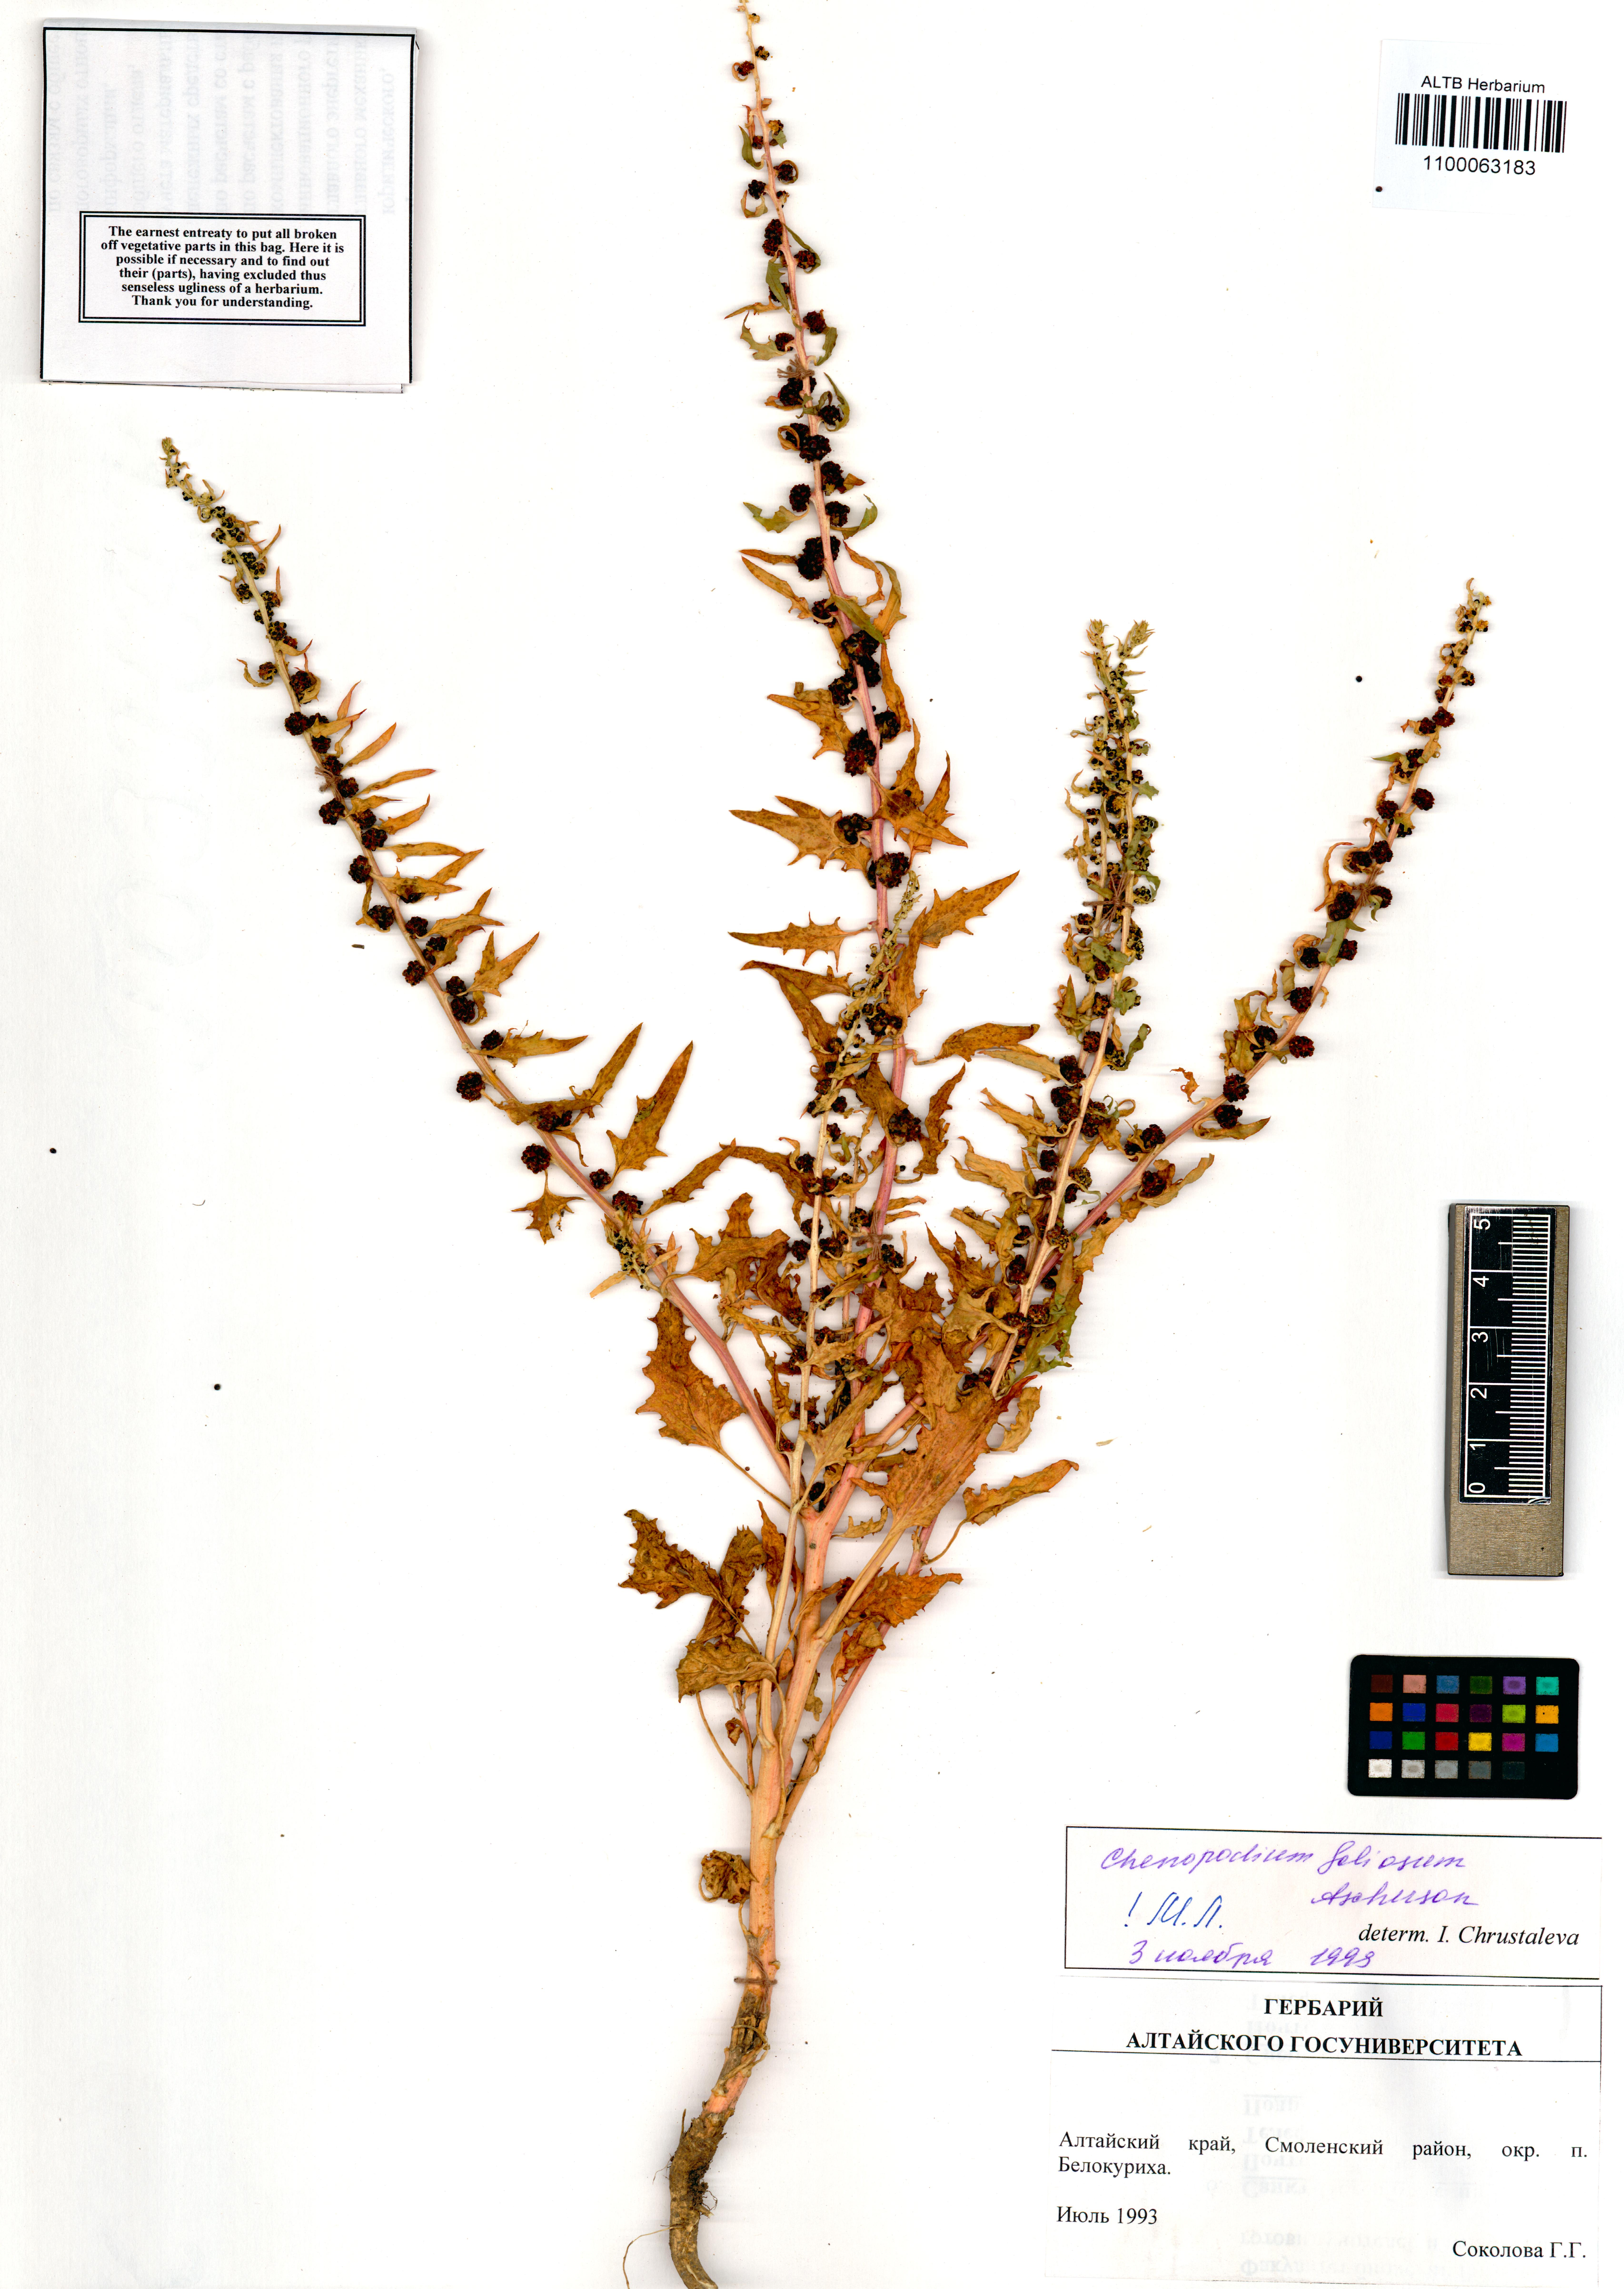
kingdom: Plantae
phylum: Tracheophyta
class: Magnoliopsida
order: Caryophyllales
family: Amaranthaceae
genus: Blitum
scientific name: Blitum virgatum
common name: Strawberry goosefoot
